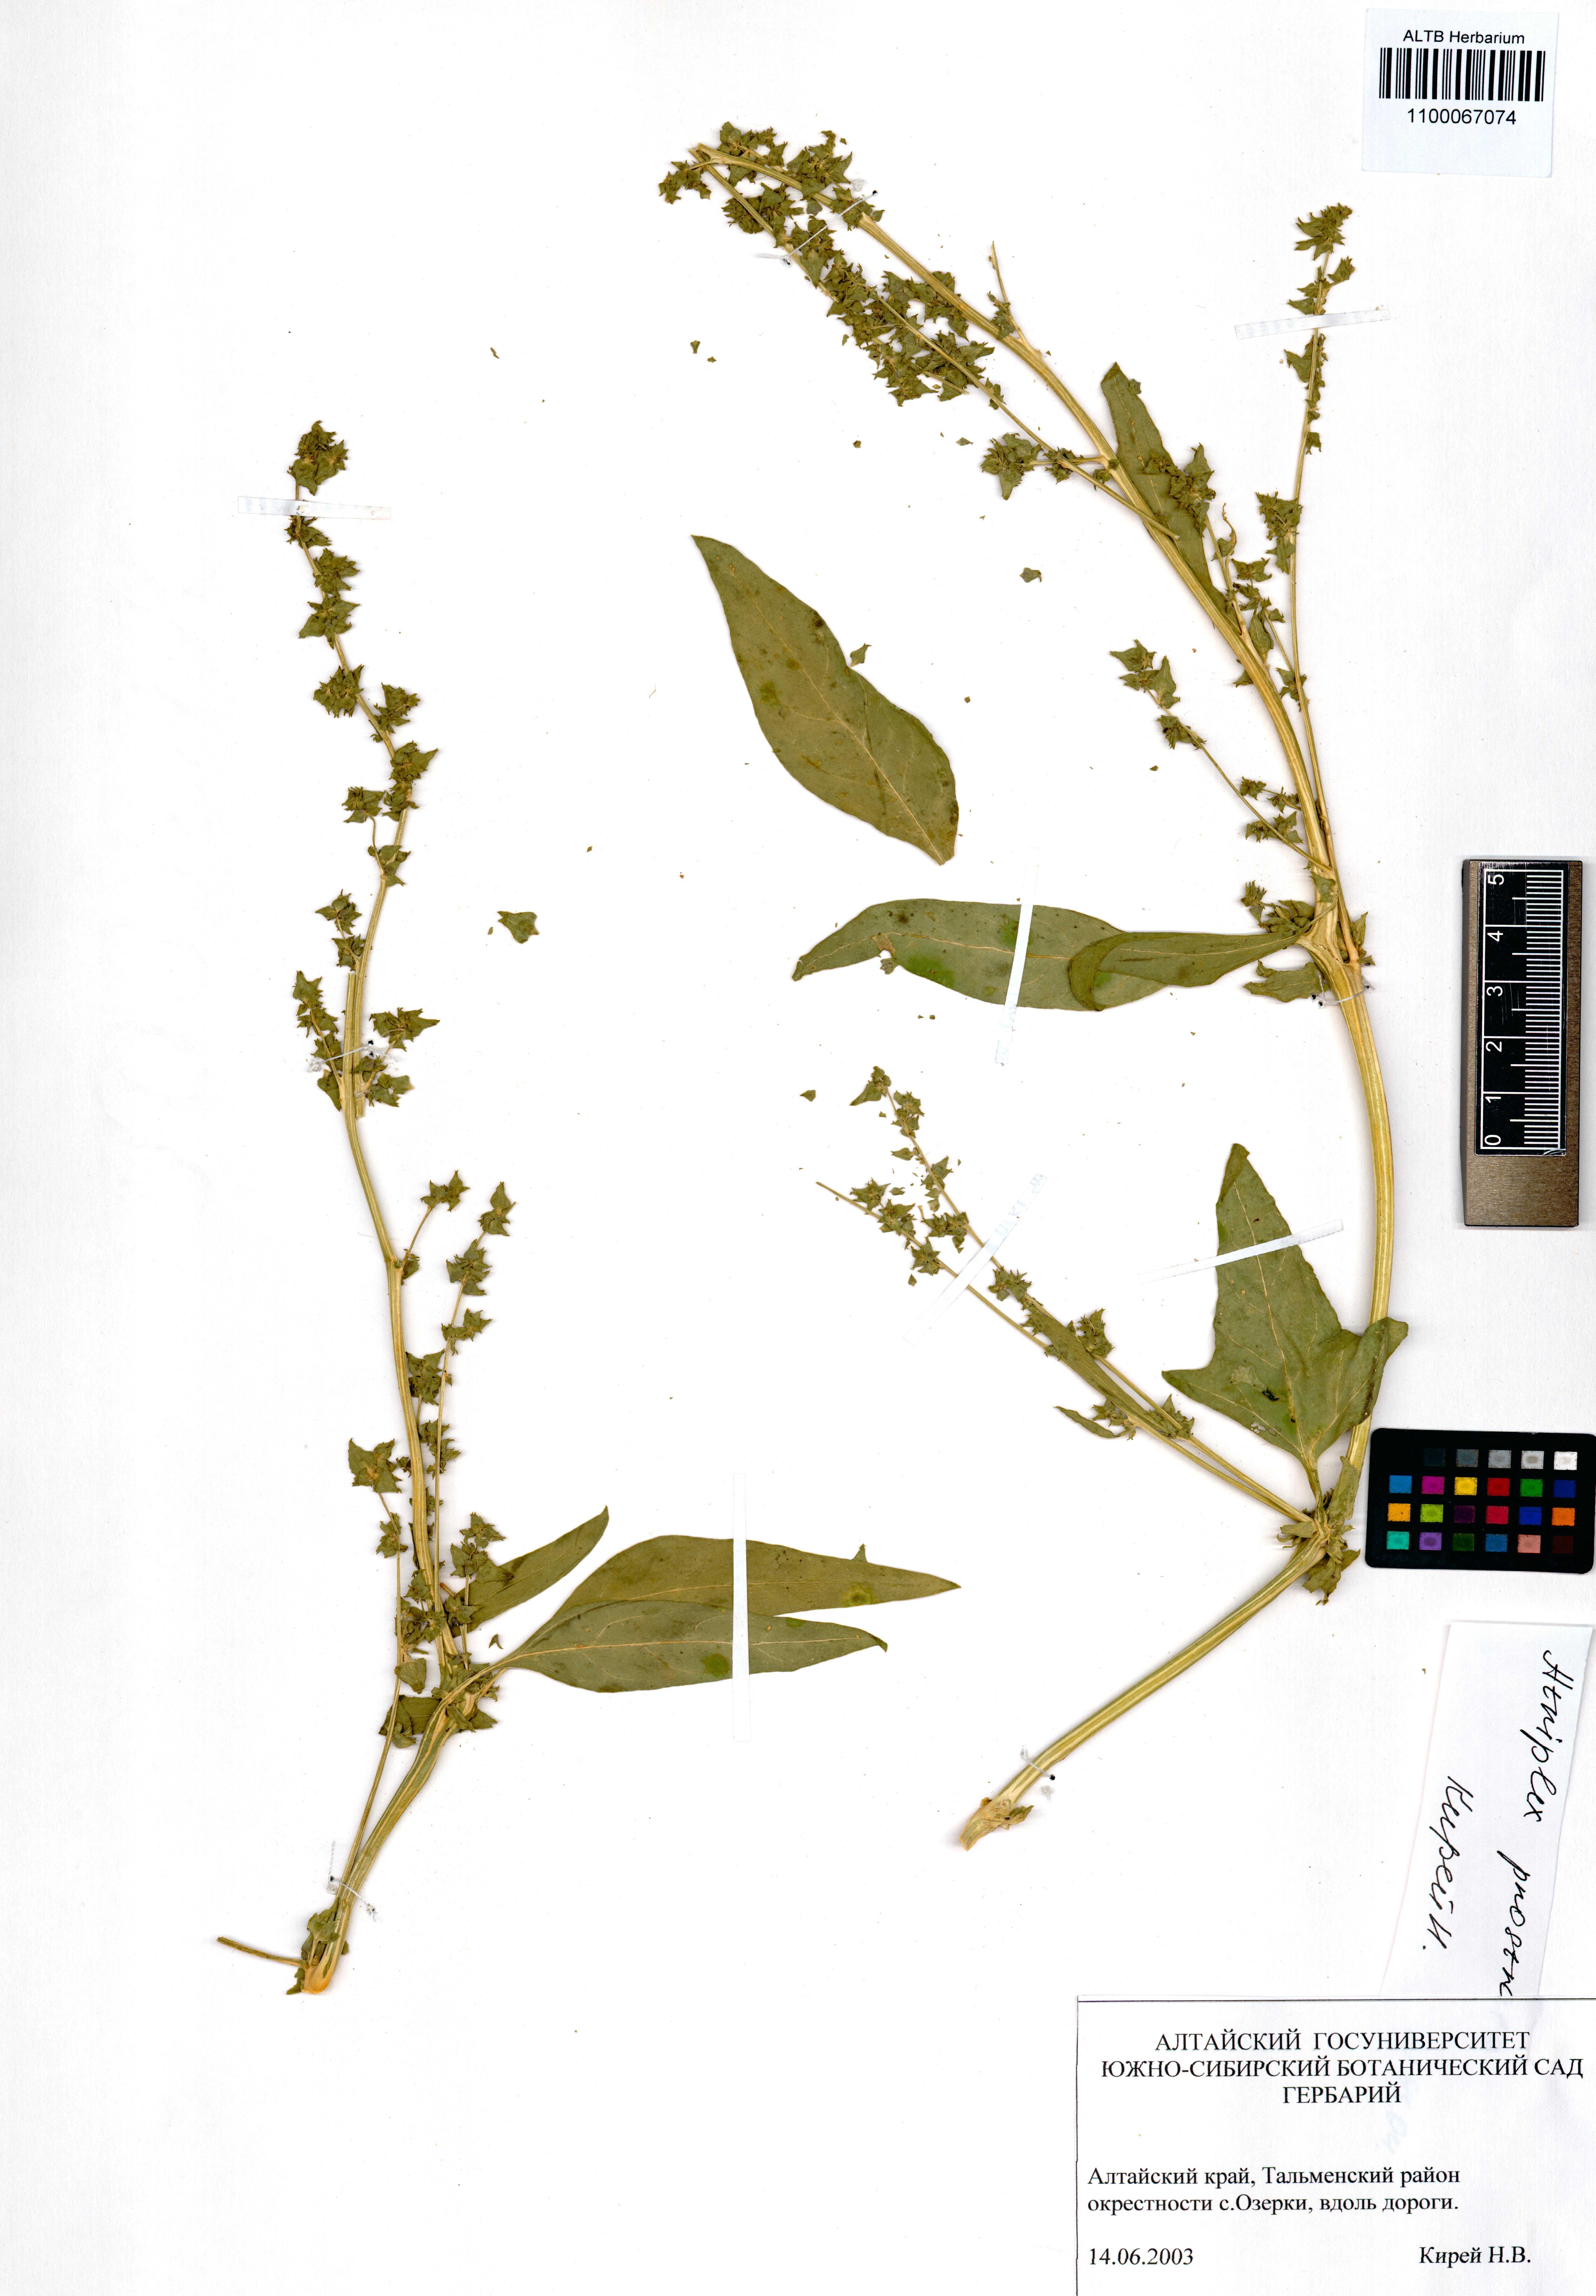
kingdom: Plantae
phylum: Tracheophyta
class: Magnoliopsida
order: Caryophyllales
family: Amaranthaceae
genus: Atriplex
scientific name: Atriplex prostrata
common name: Spear-leaved orache
